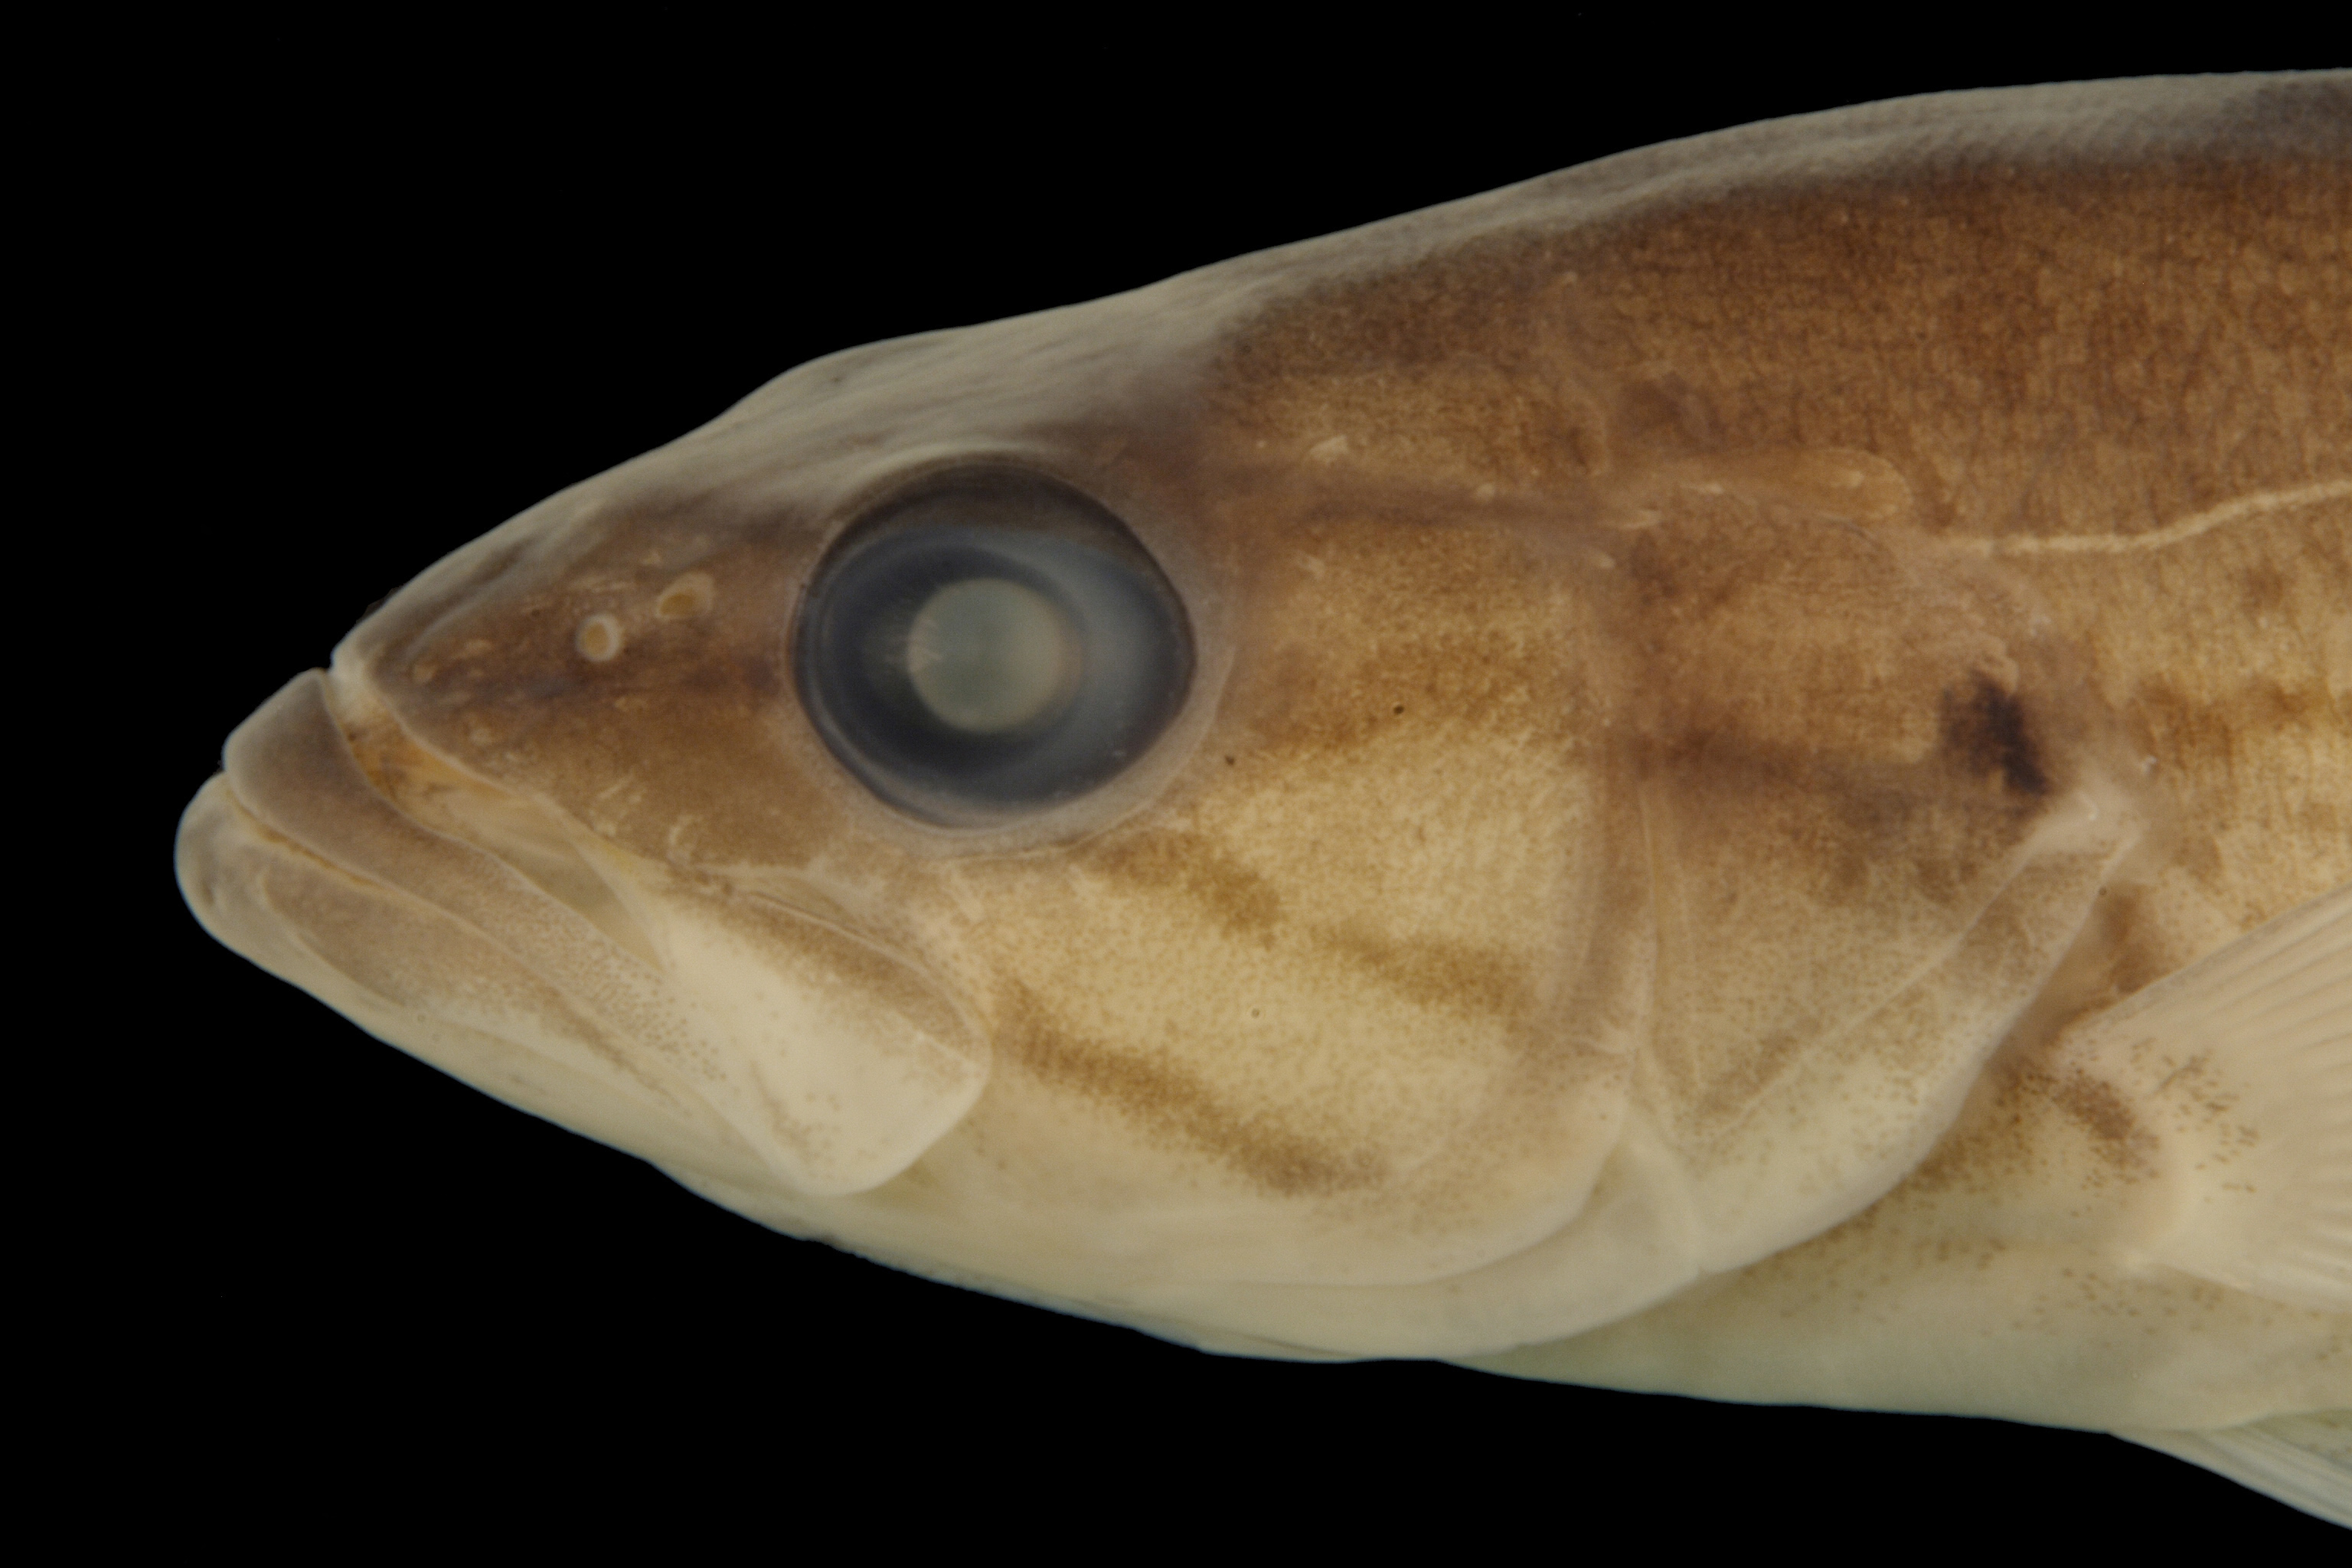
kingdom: Animalia
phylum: Chordata
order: Perciformes
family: Centrarchidae
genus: Micropterus
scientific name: Micropterus dolomieu
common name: Smallmouth bass
